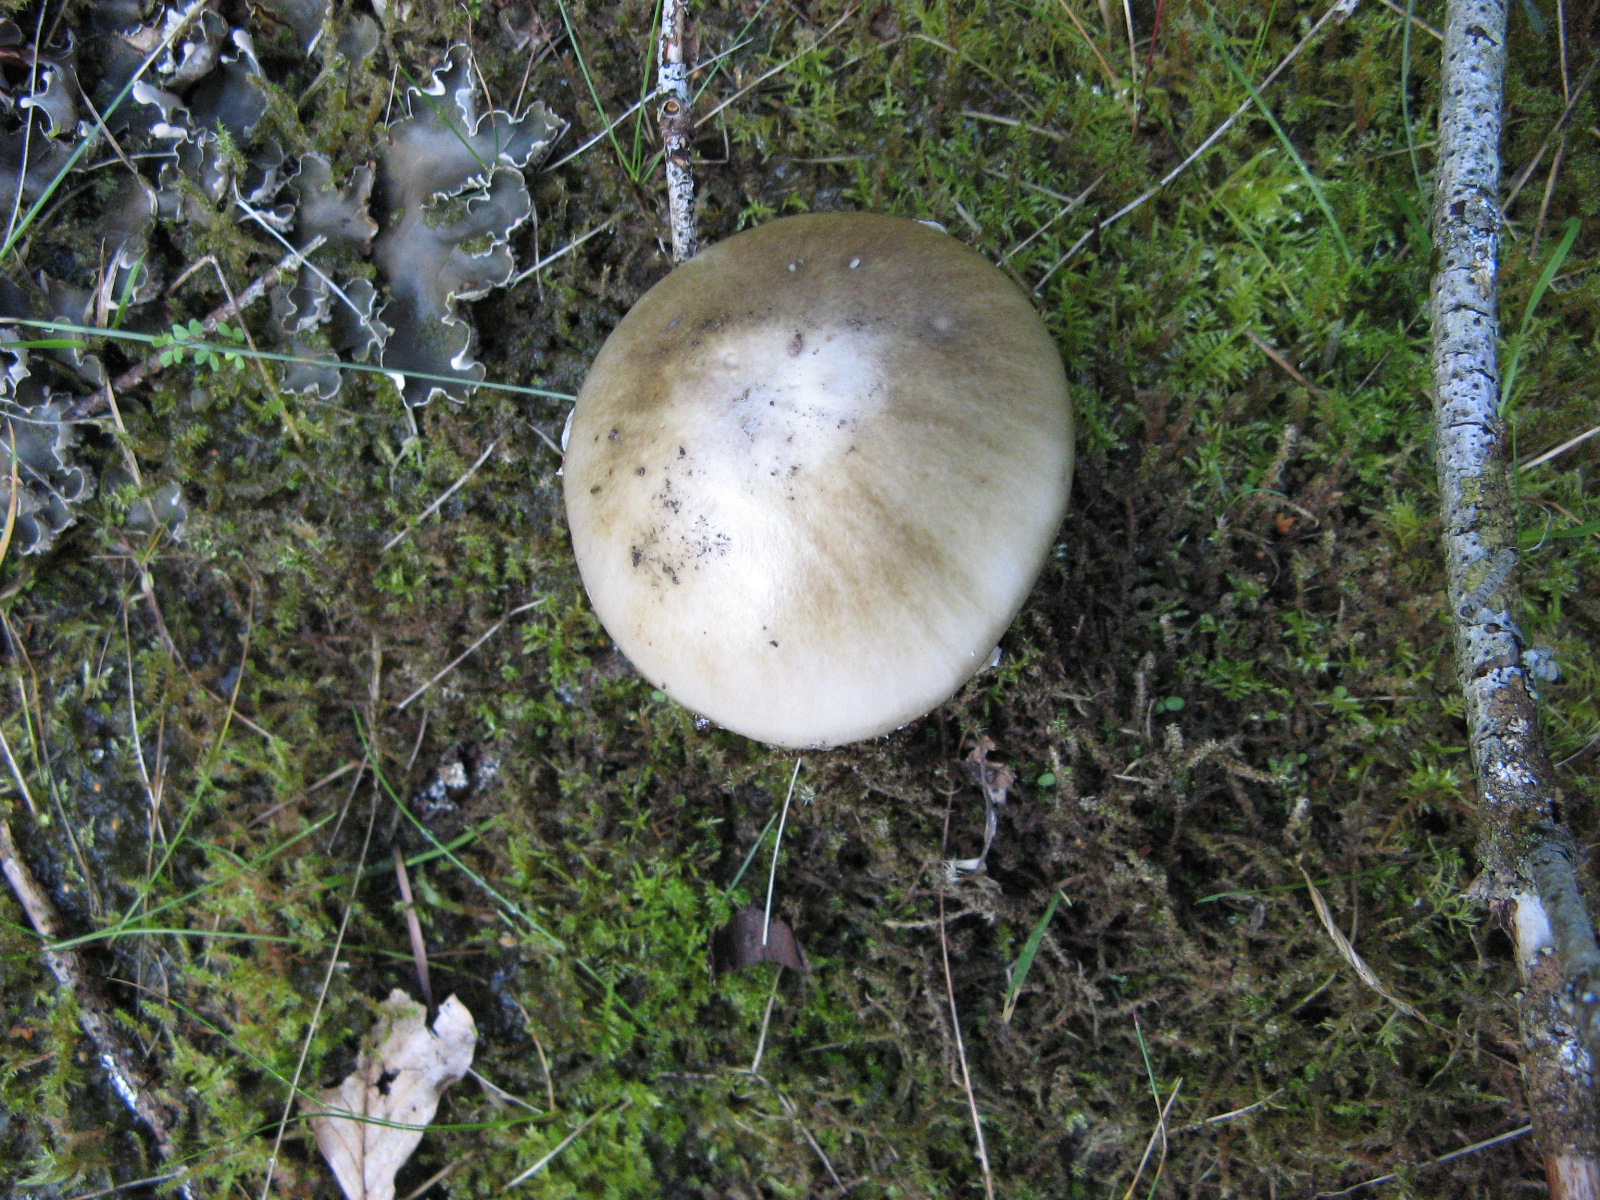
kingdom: Fungi
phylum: Basidiomycota
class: Agaricomycetes
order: Agaricales
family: Amanitaceae
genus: Amanita
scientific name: Amanita porphyria
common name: porfyr-fluesvamp
